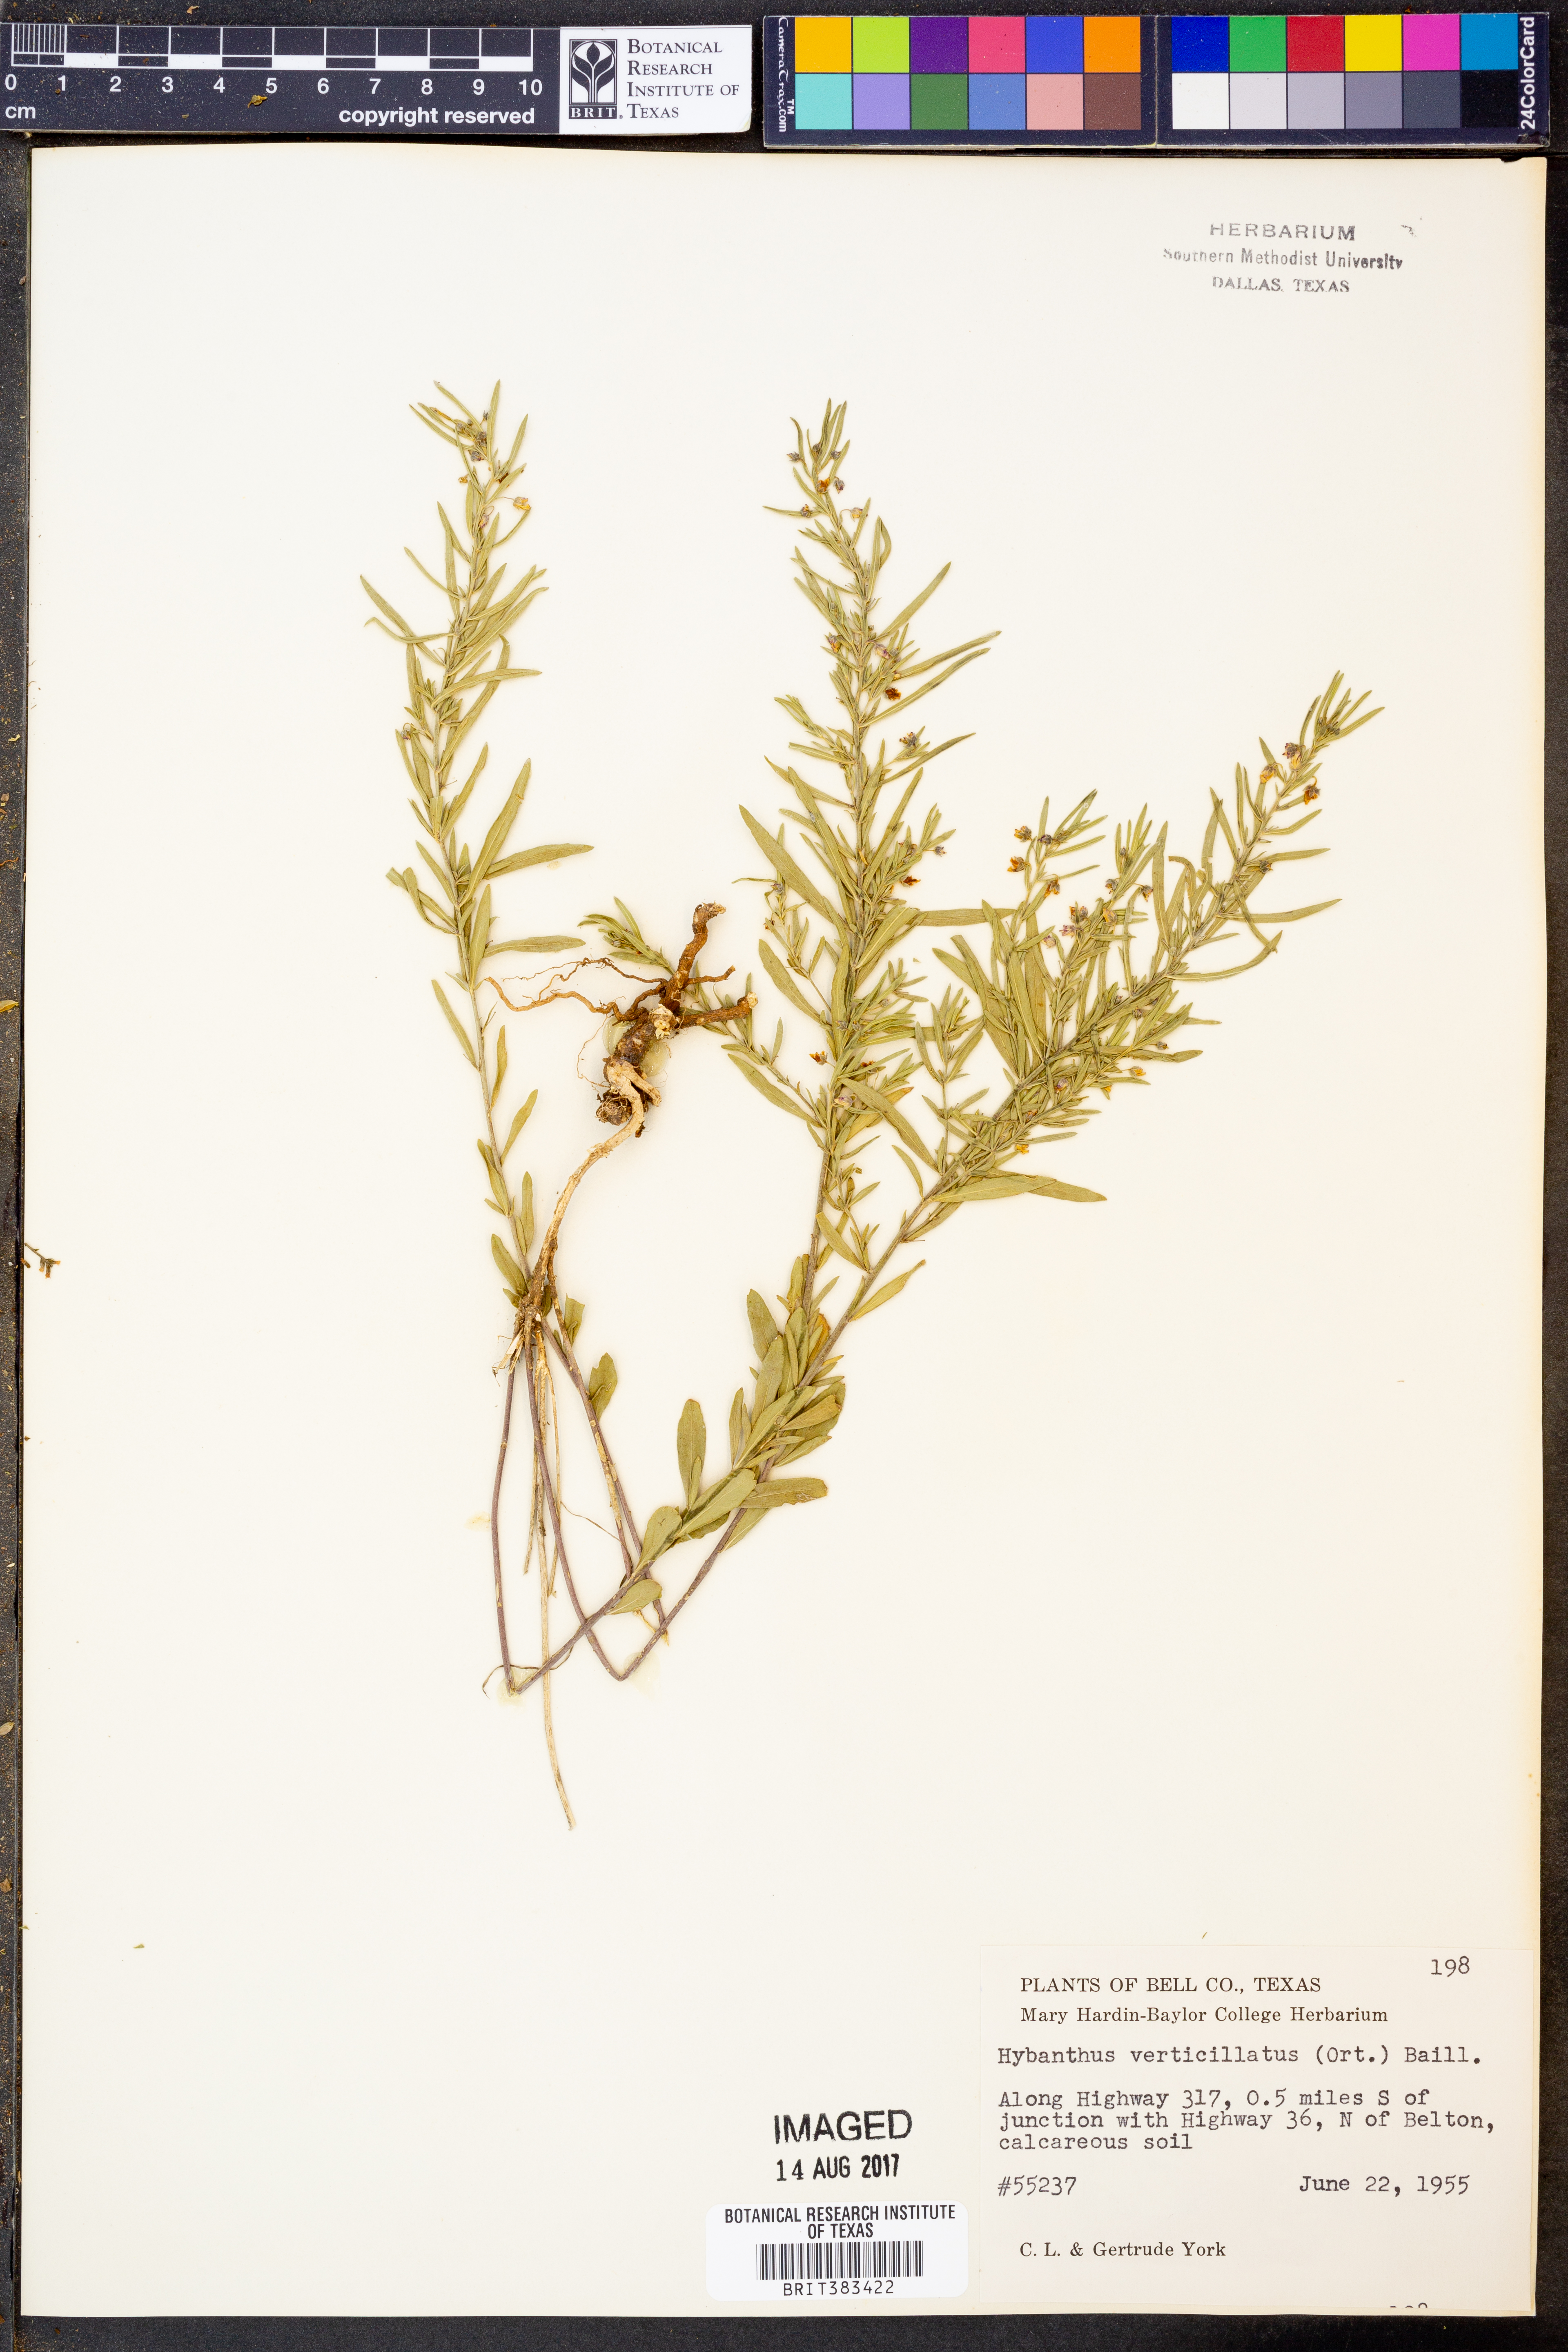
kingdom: Plantae
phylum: Tracheophyta
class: Magnoliopsida
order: Malpighiales
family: Violaceae
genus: Pombalia
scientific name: Pombalia verticillata
